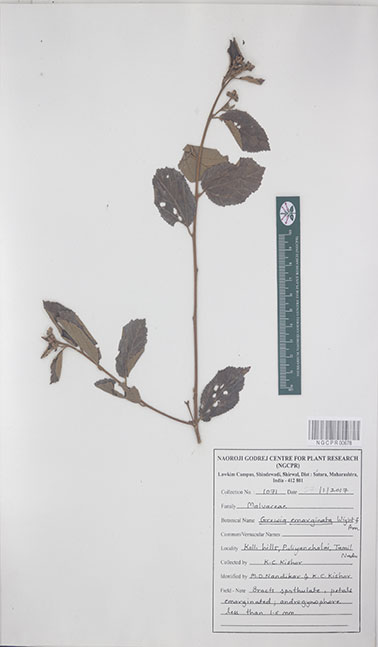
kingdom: Plantae
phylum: Tracheophyta
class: Magnoliopsida
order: Malvales
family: Malvaceae
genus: Grewia
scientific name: Grewia oppositifolia
